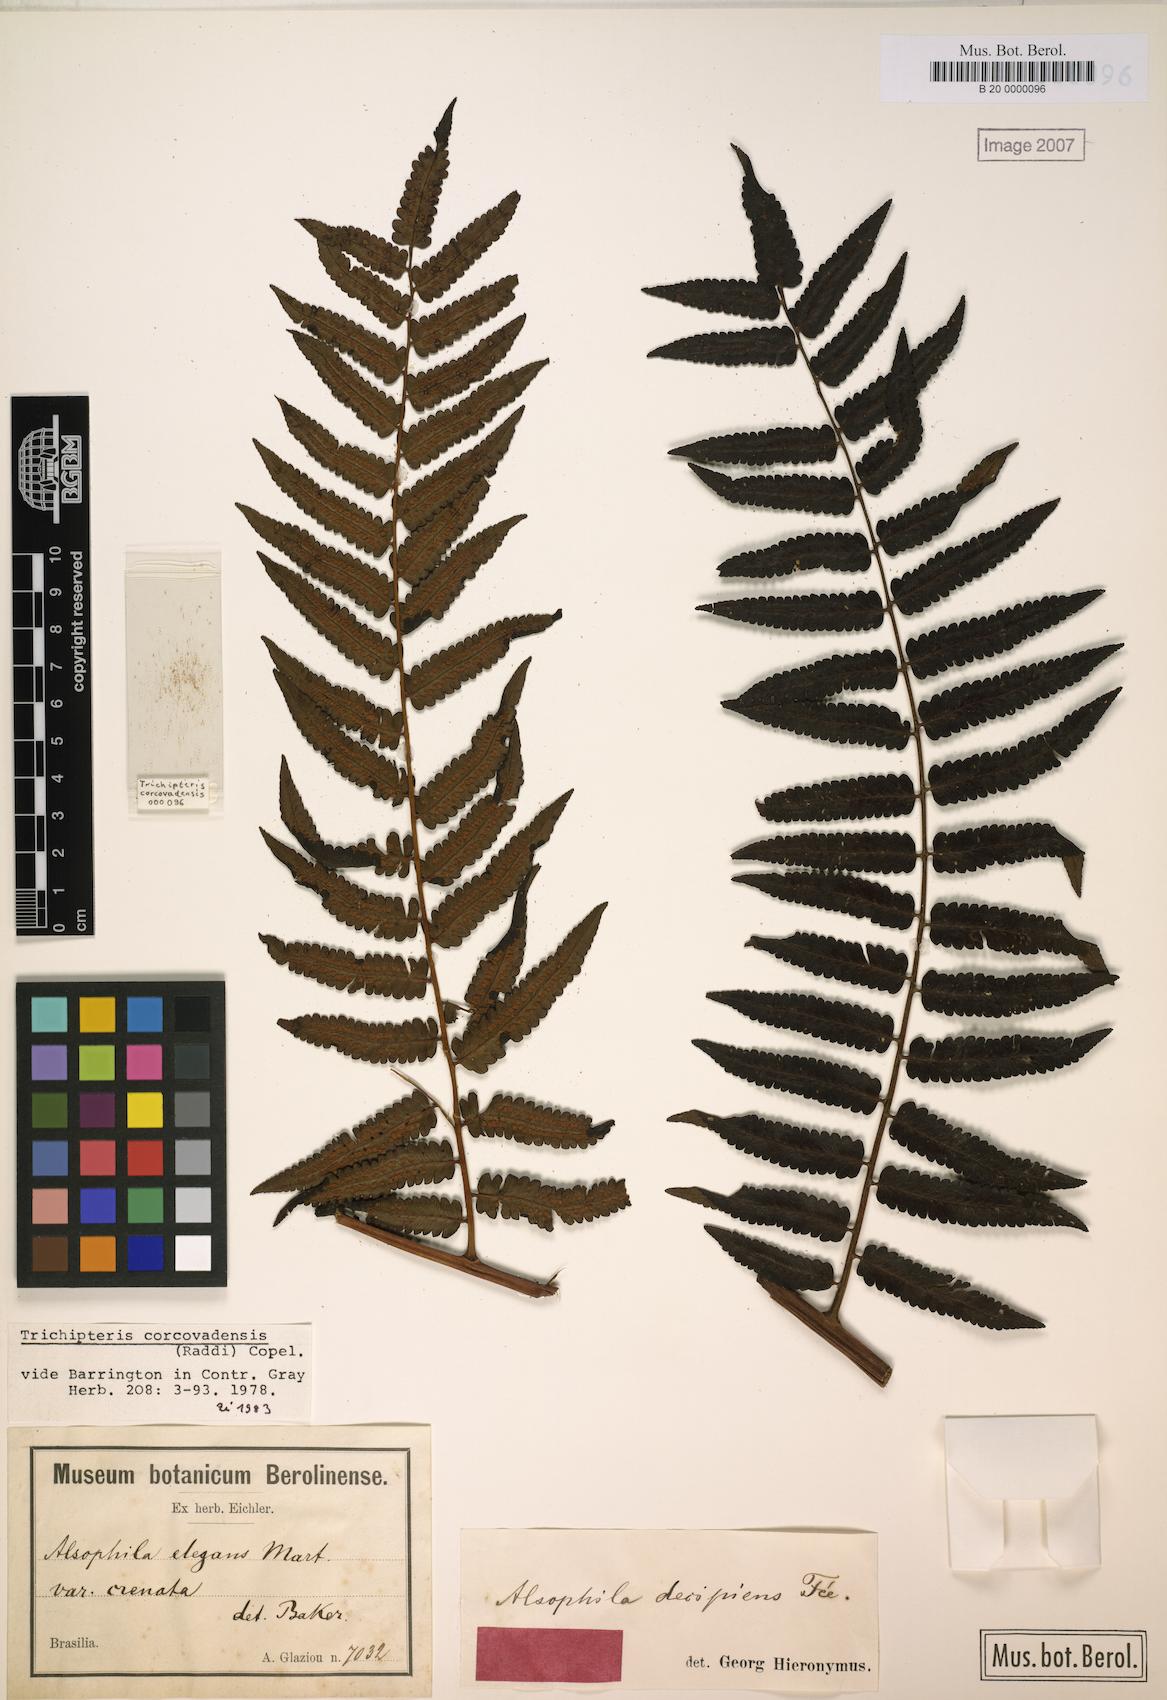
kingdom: Plantae
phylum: Tracheophyta
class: Polypodiopsida
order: Cyatheales
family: Cyatheaceae
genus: Cyathea
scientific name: Cyathea corcovadensis
